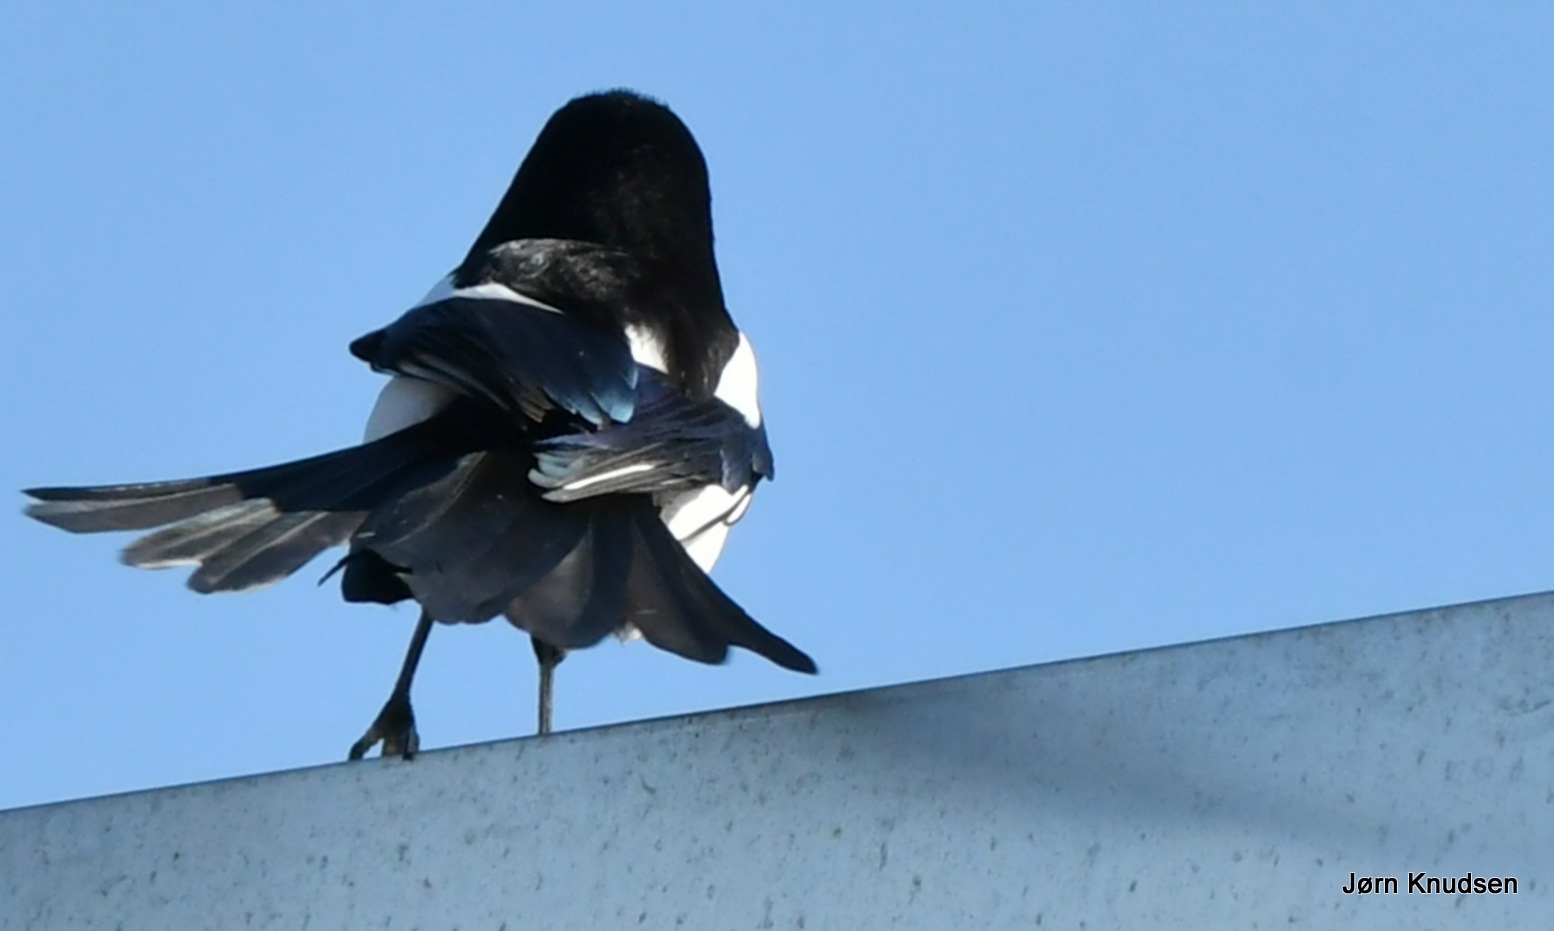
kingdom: Animalia
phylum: Chordata
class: Aves
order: Passeriformes
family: Corvidae
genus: Pica
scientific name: Pica pica
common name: Husskade
